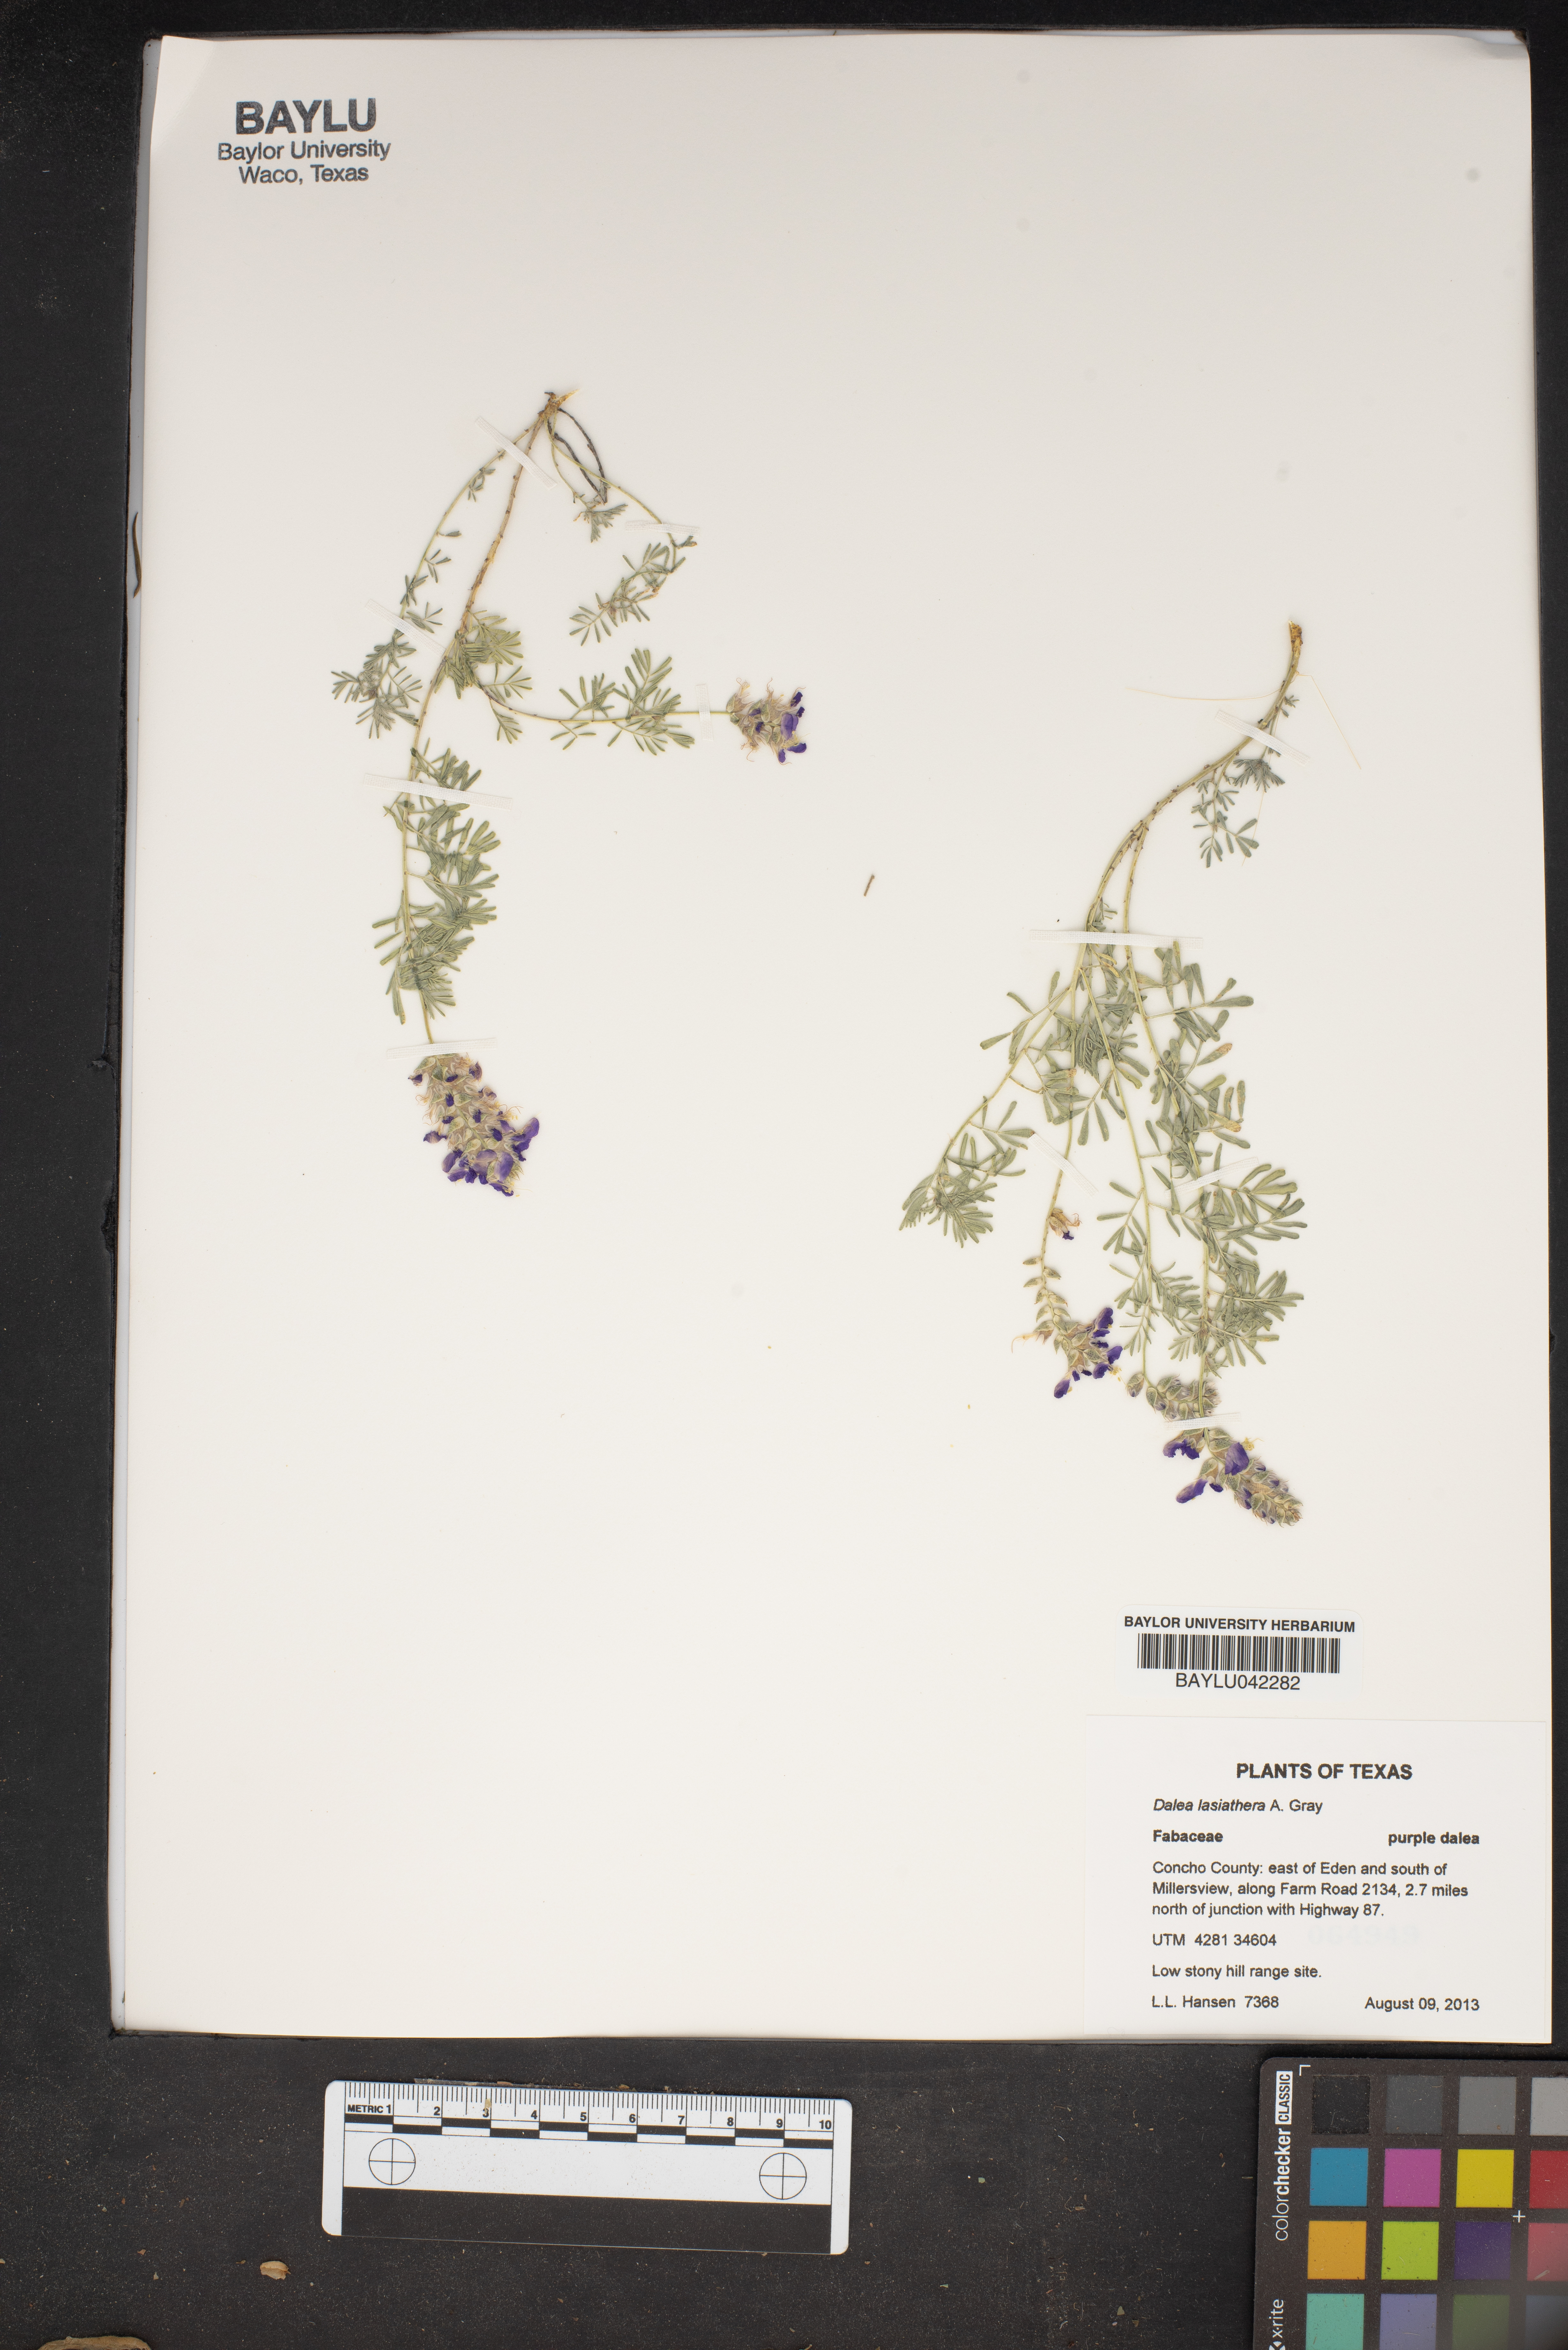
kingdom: Plantae
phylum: Tracheophyta
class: Magnoliopsida
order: Fabales
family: Fabaceae
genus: Dalea
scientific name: Dalea lasiathera
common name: Purple prairie-clover
